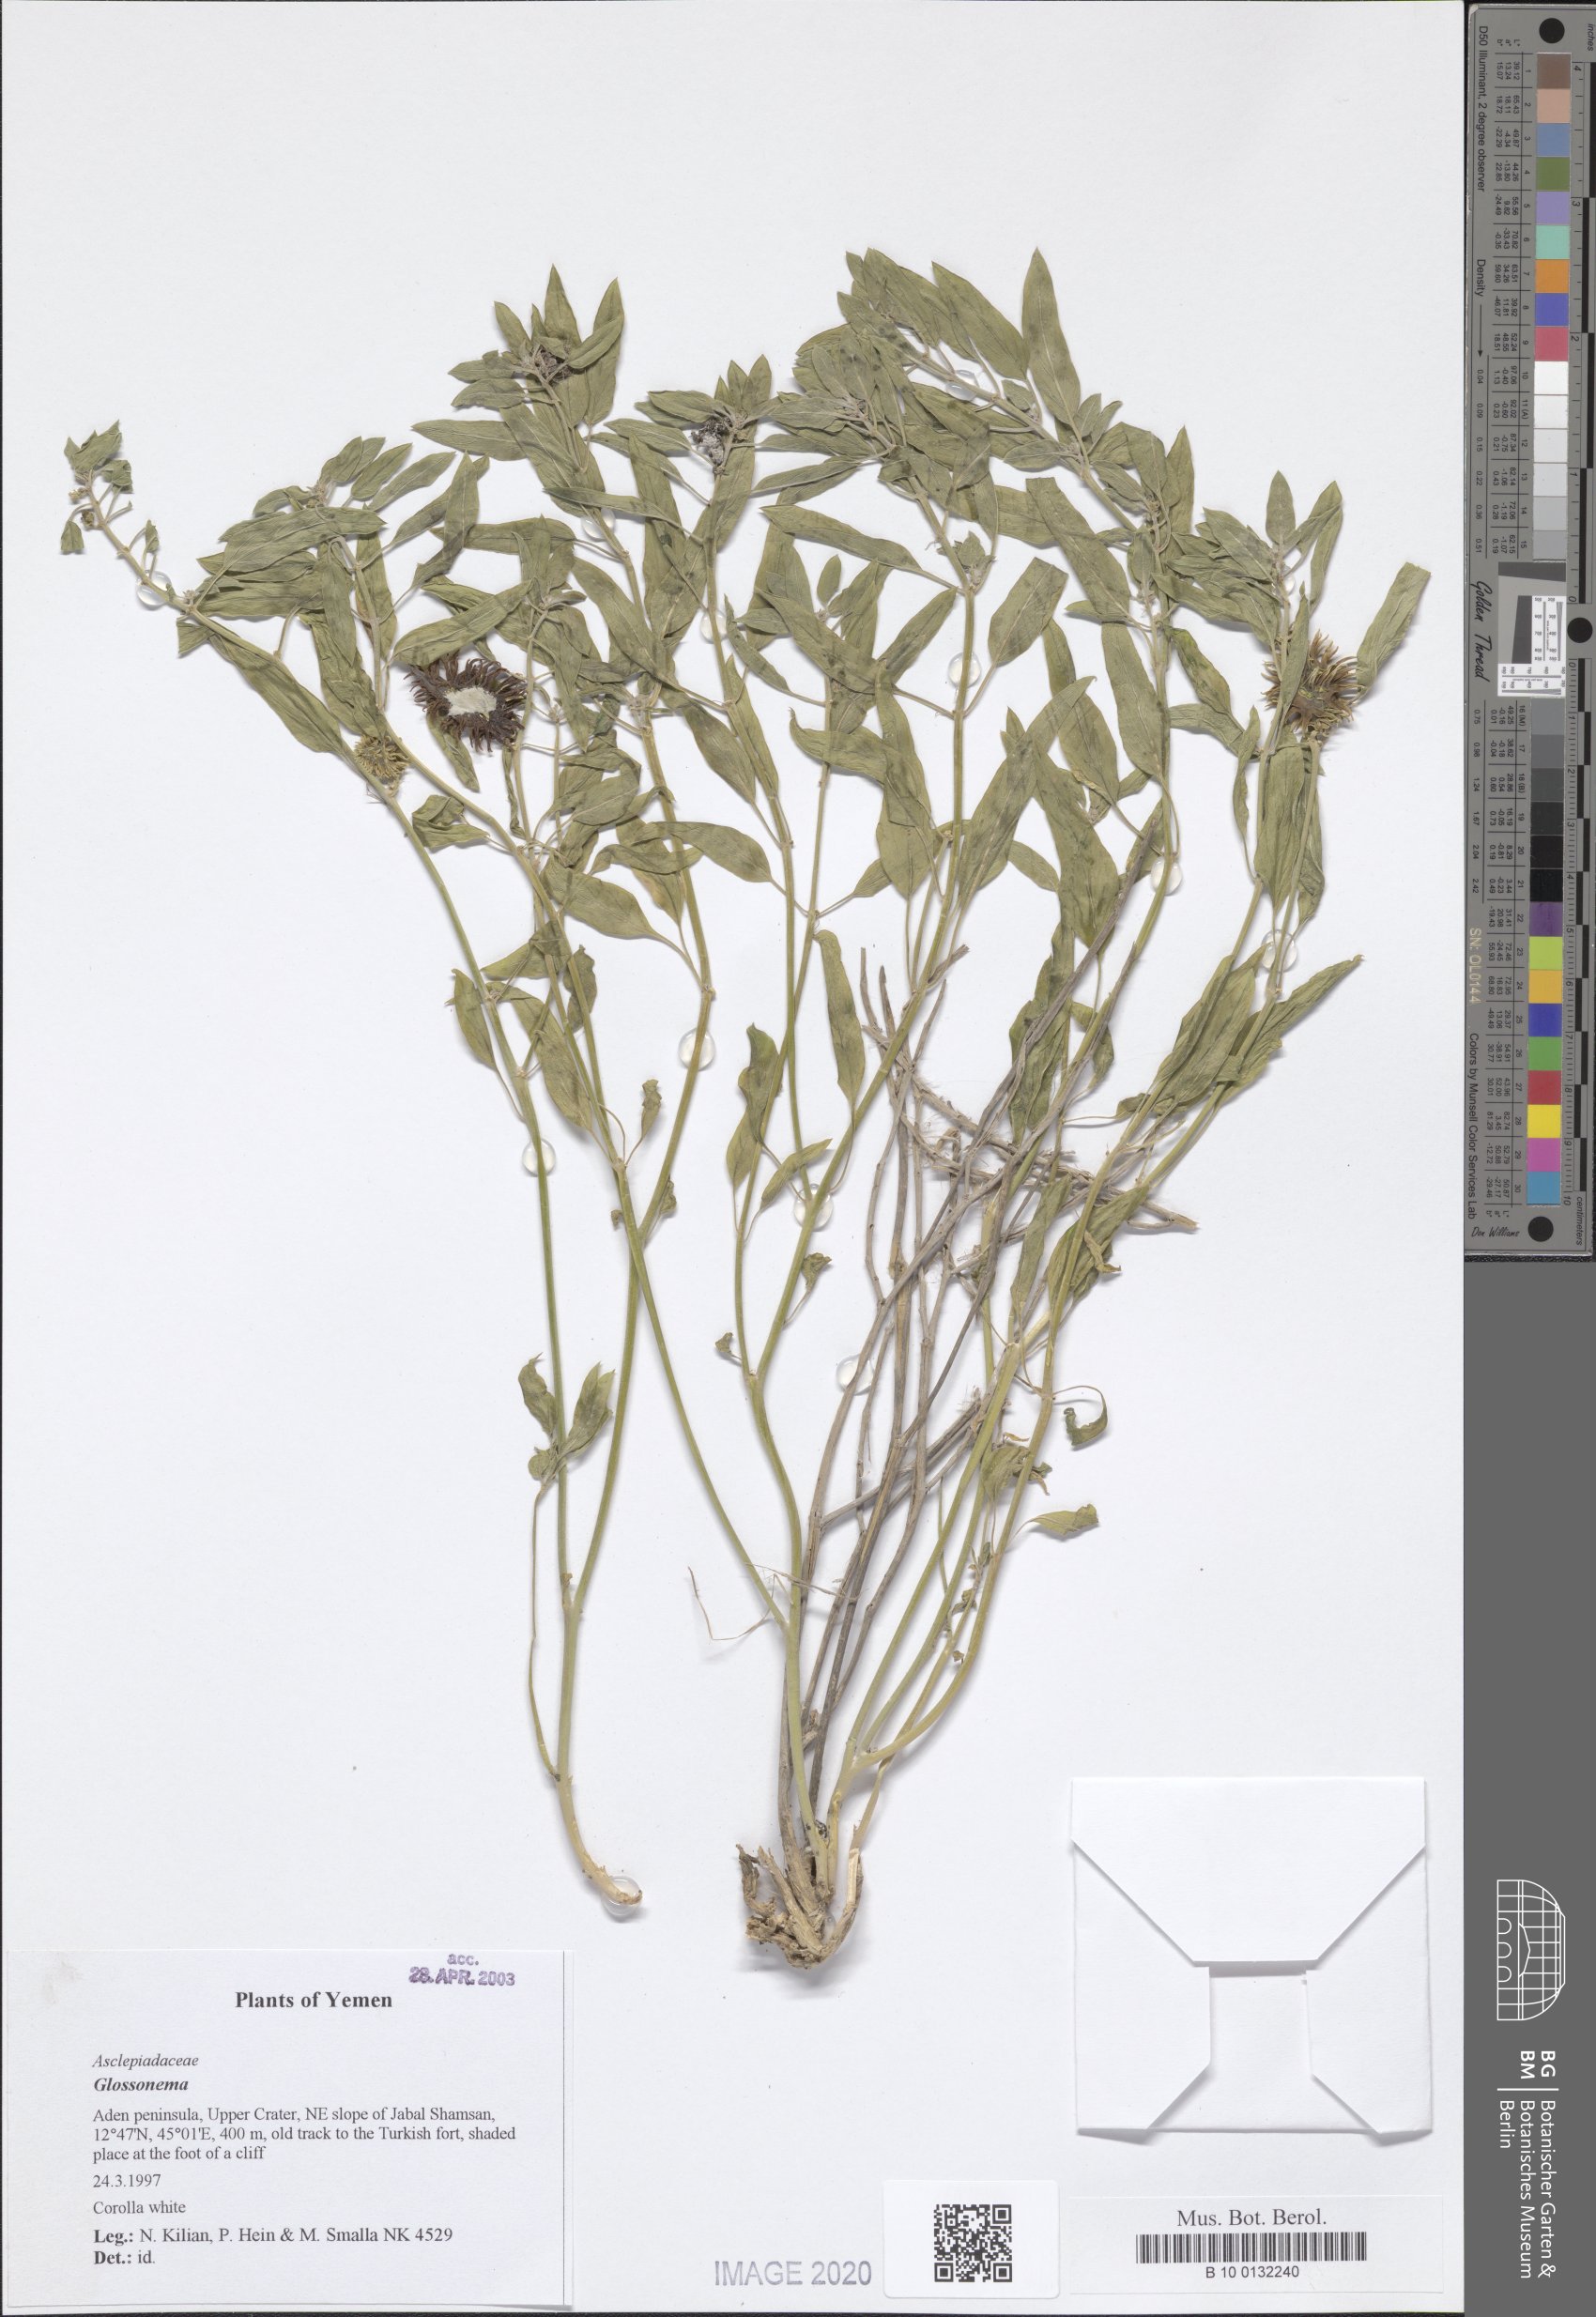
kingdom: Plantae
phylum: Tracheophyta
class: Magnoliopsida
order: Gentianales
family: Apocynaceae
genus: Cynanchum
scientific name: Cynanchum boveanum
